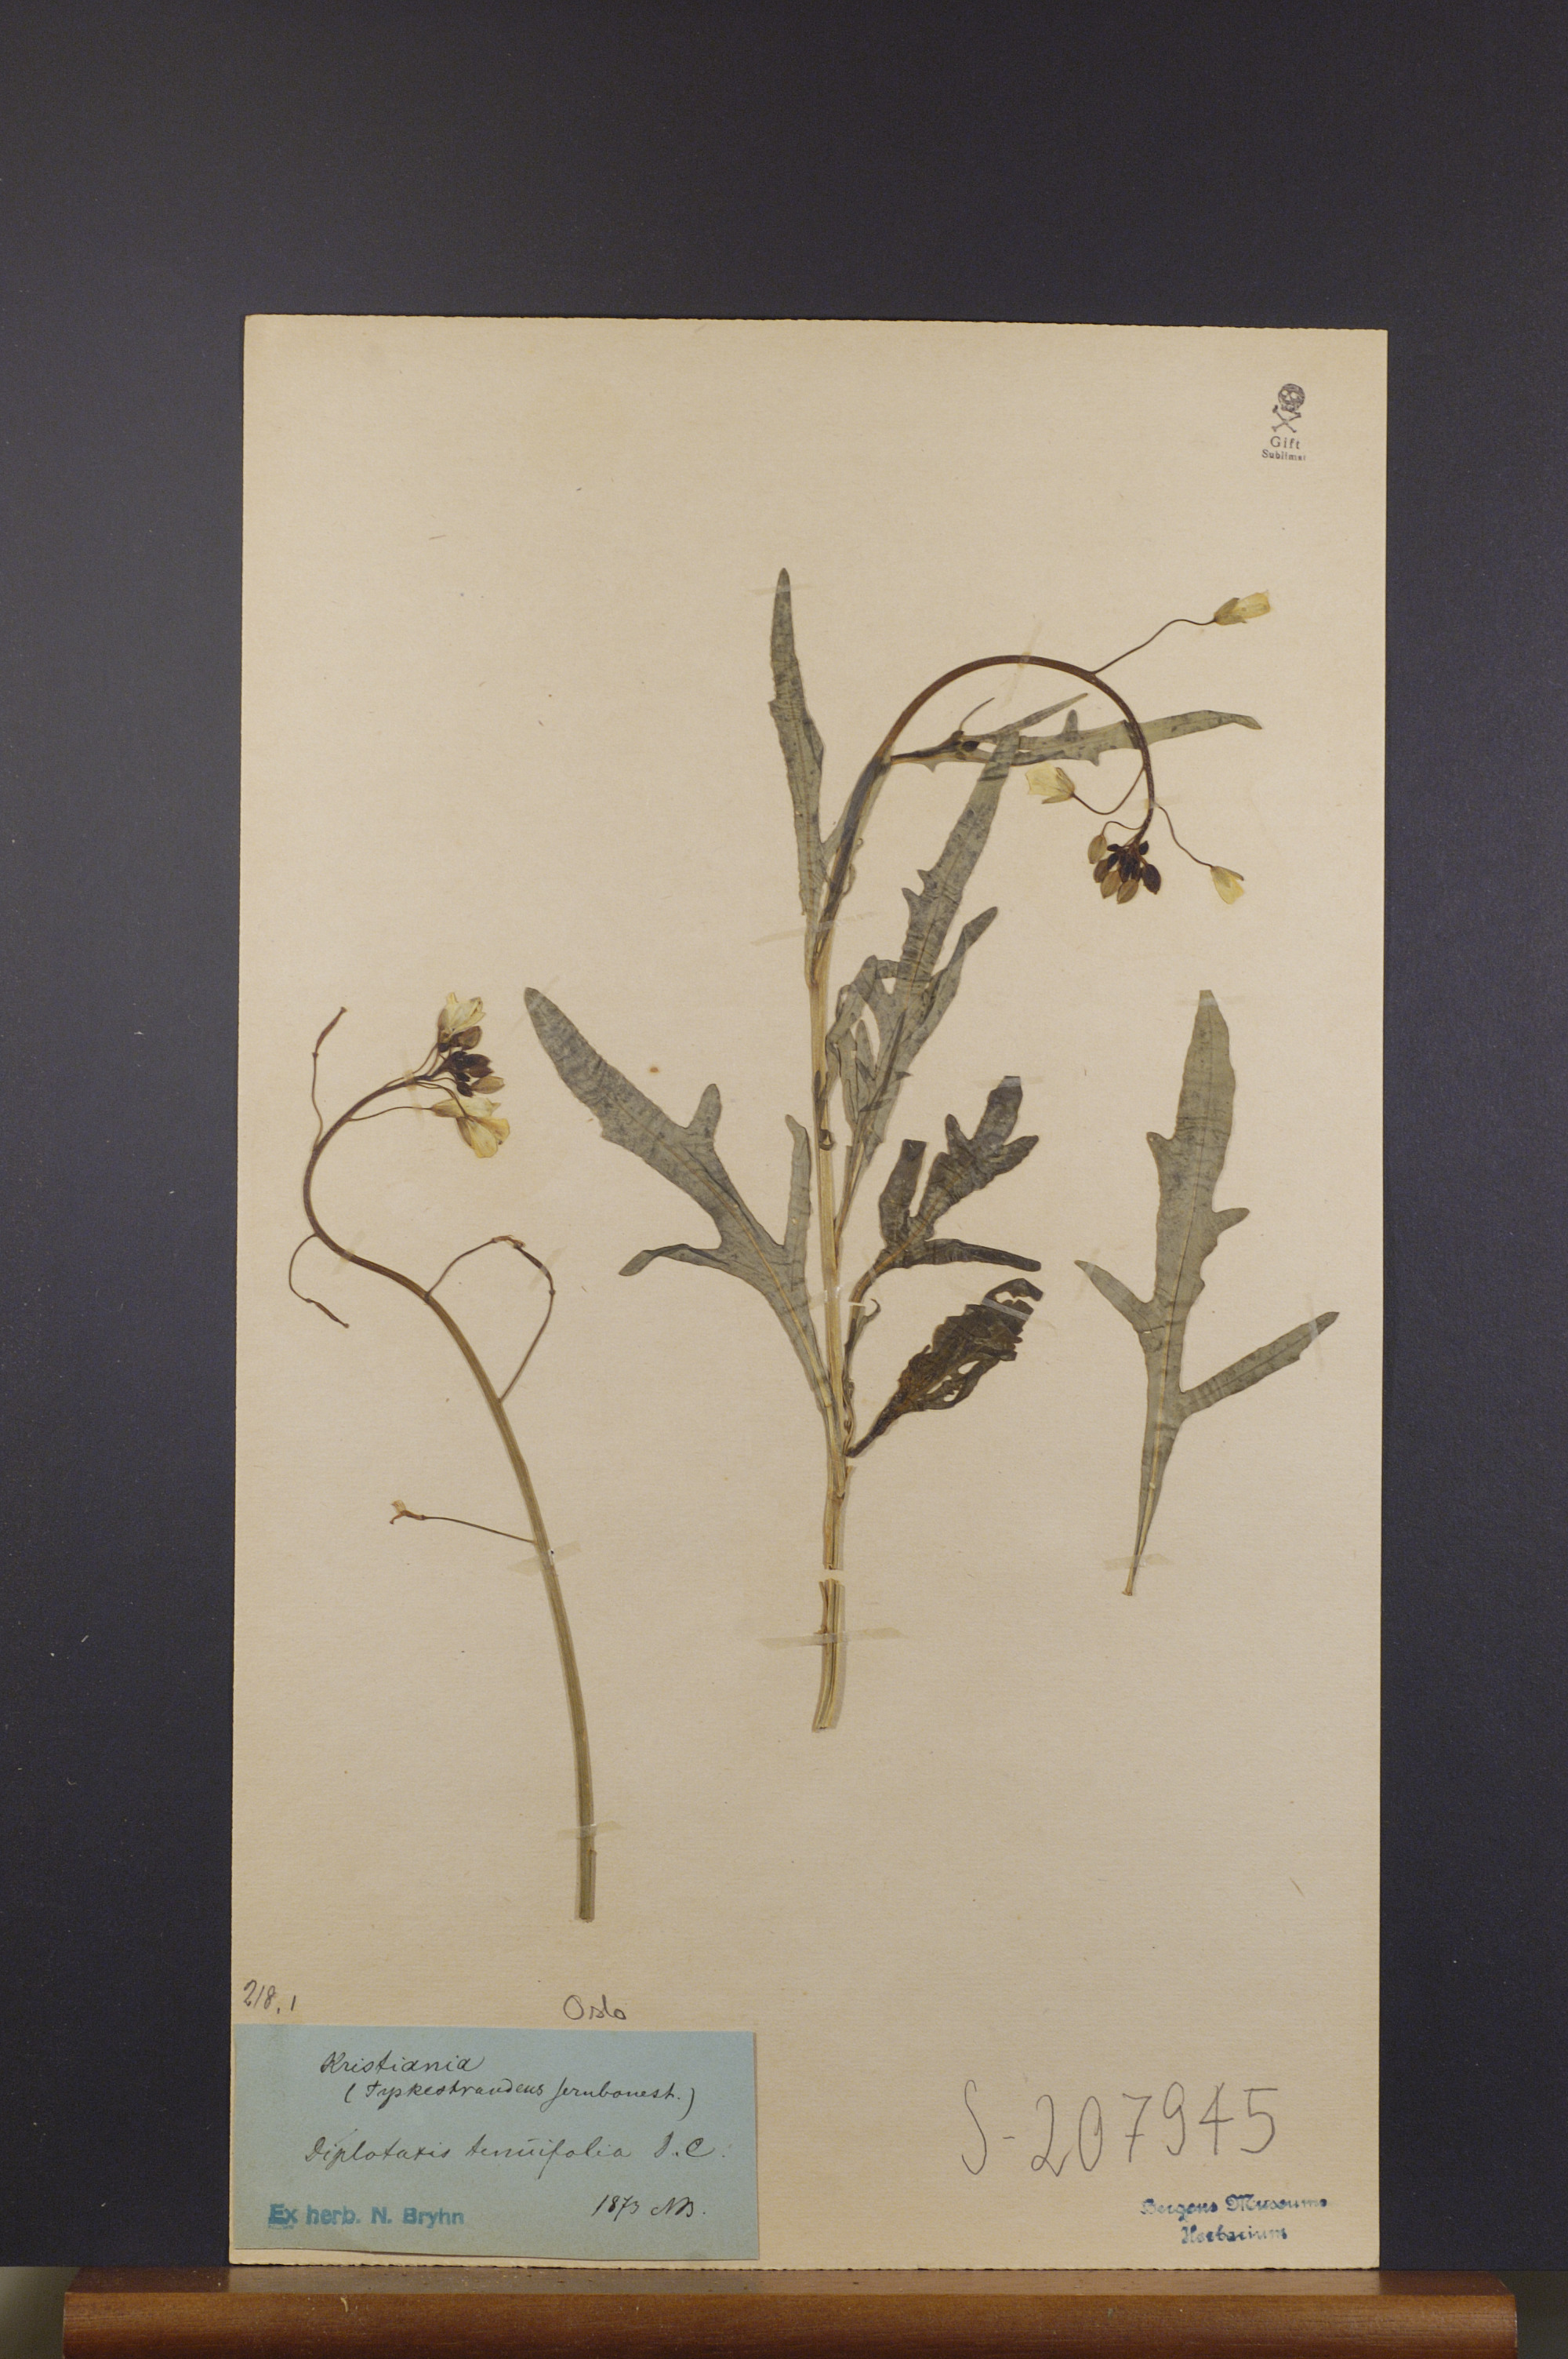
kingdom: Plantae
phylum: Tracheophyta
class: Magnoliopsida
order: Brassicales
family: Brassicaceae
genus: Diplotaxis
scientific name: Diplotaxis tenuifolia
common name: Perennial wall-rocket
